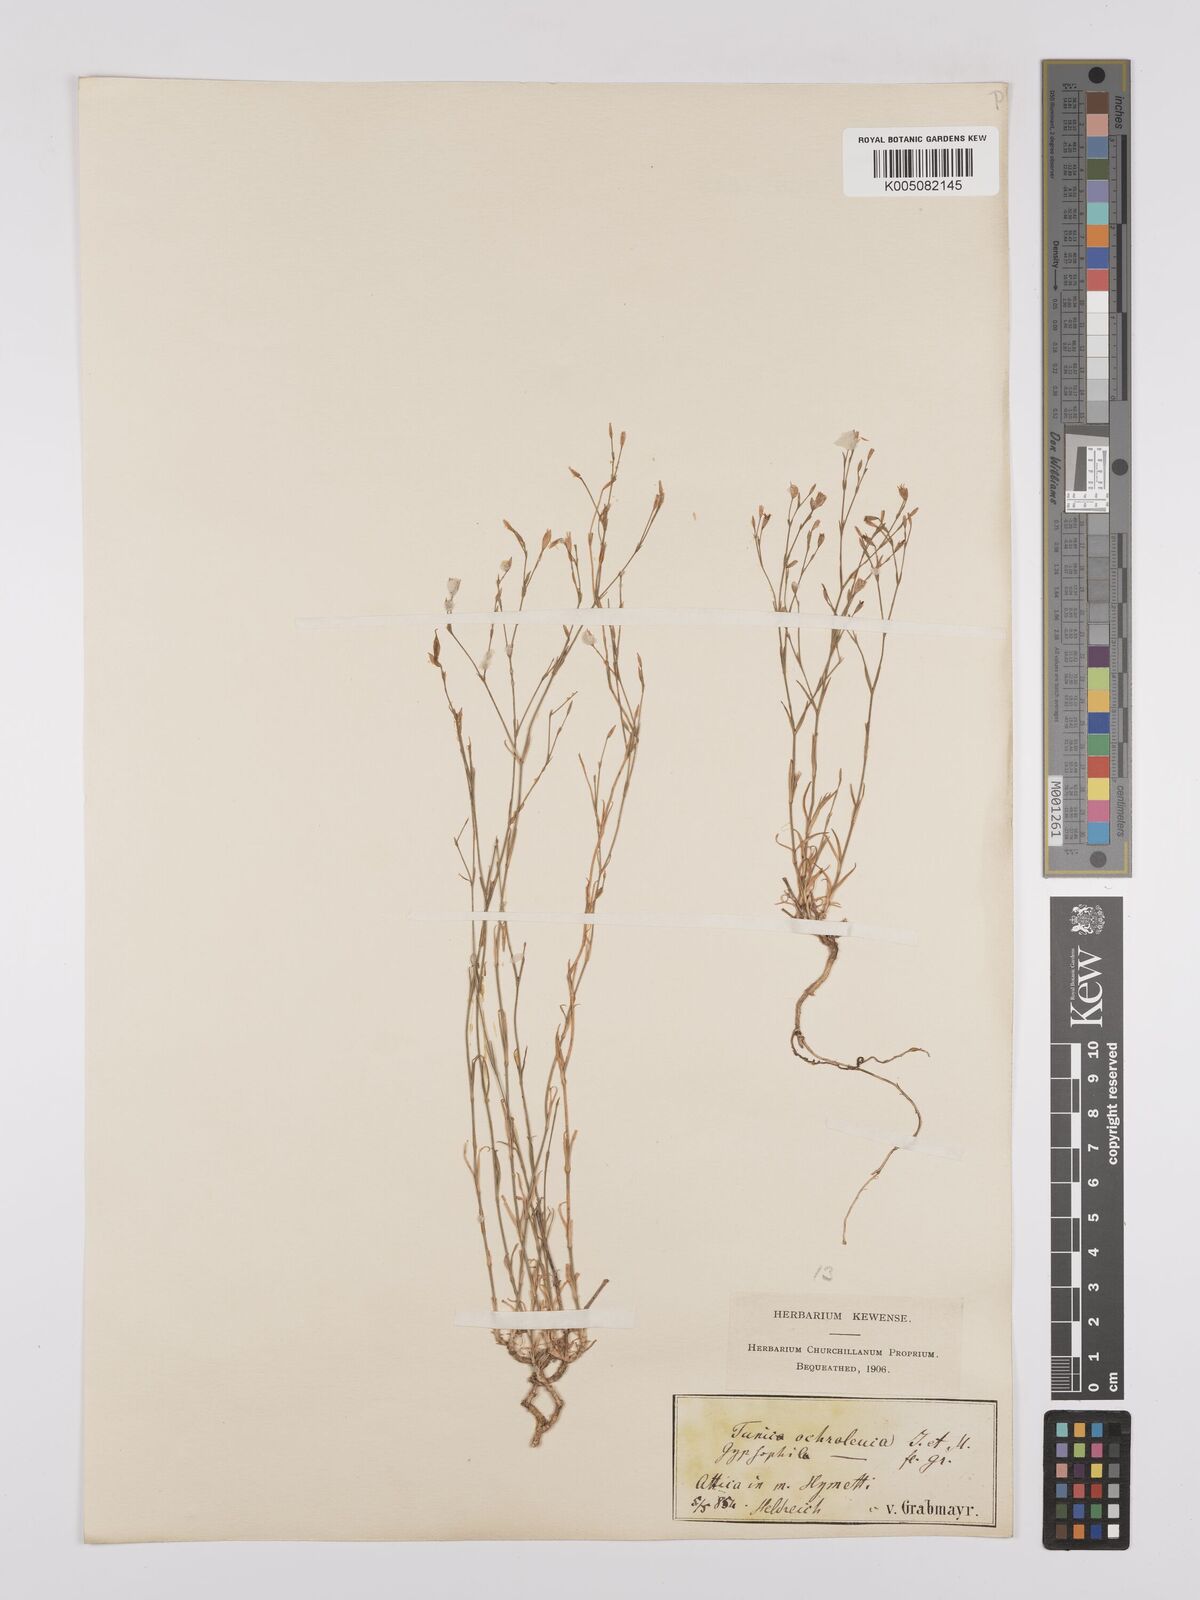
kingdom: Plantae
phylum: Tracheophyta
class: Magnoliopsida
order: Caryophyllales
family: Caryophyllaceae
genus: Petrorhagia
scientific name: Petrorhagia ochroleuca
